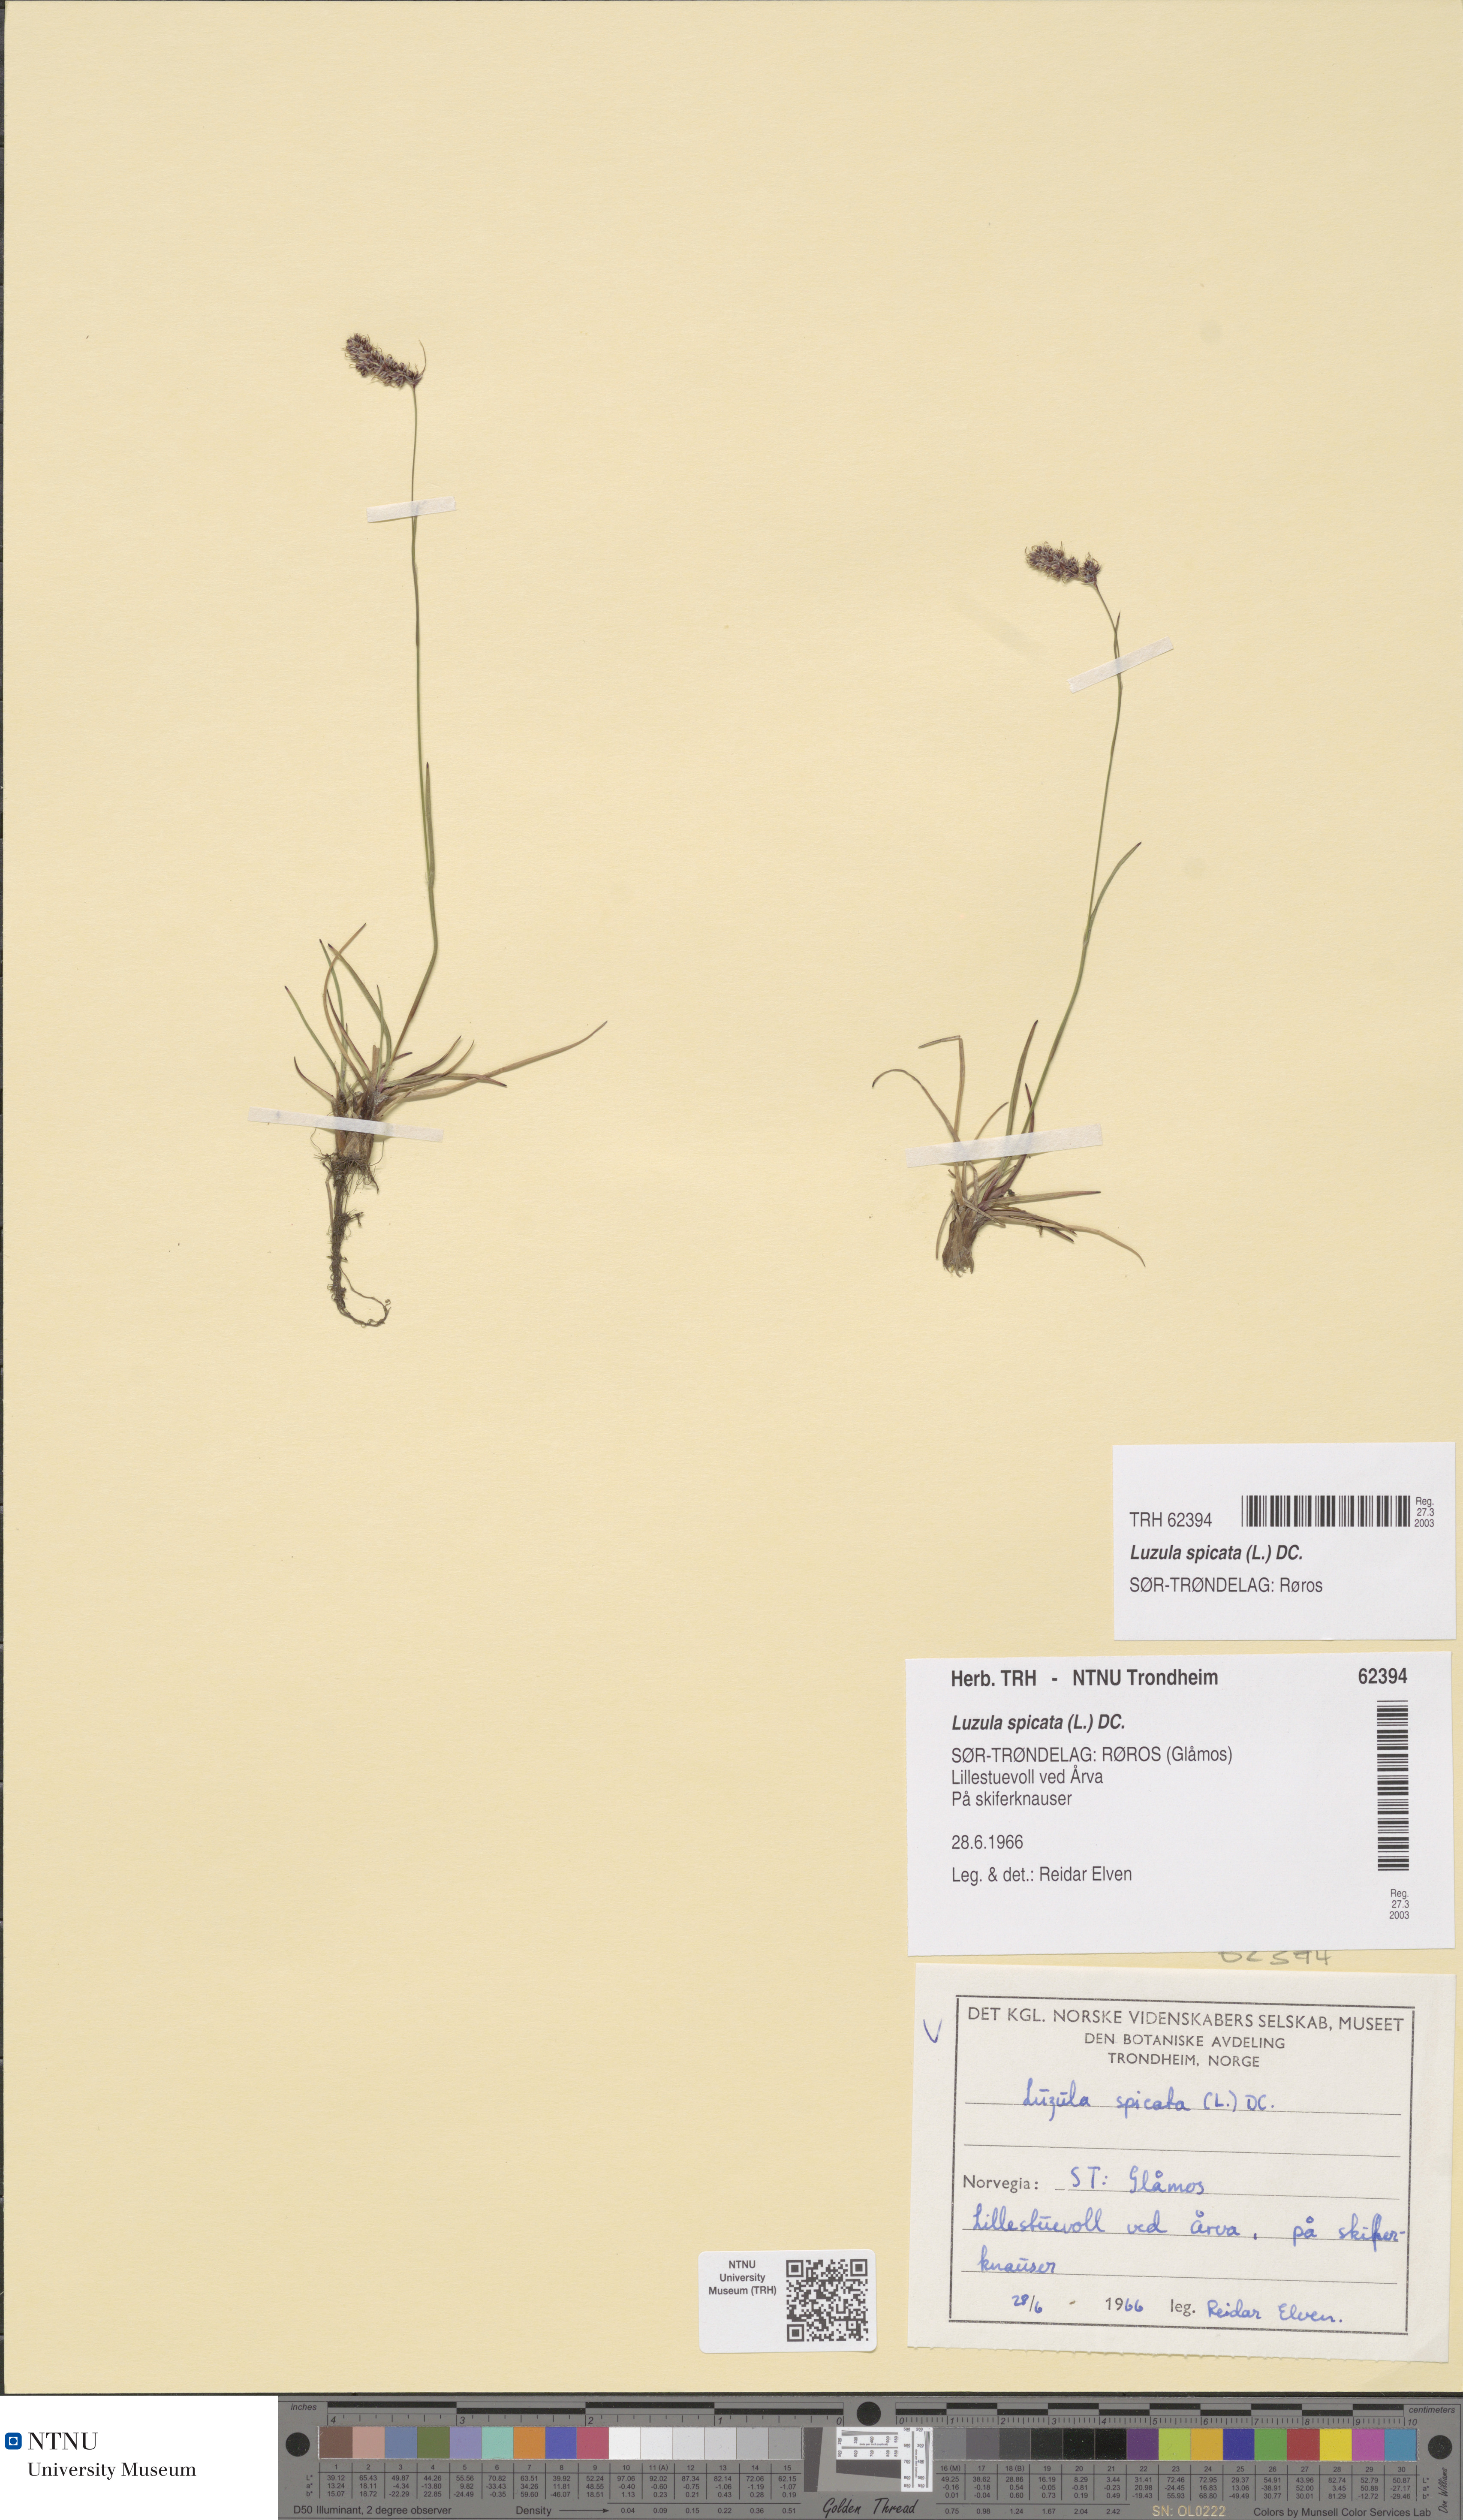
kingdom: Plantae
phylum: Tracheophyta
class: Liliopsida
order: Poales
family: Juncaceae
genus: Luzula
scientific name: Luzula spicata
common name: Spiked wood-rush
